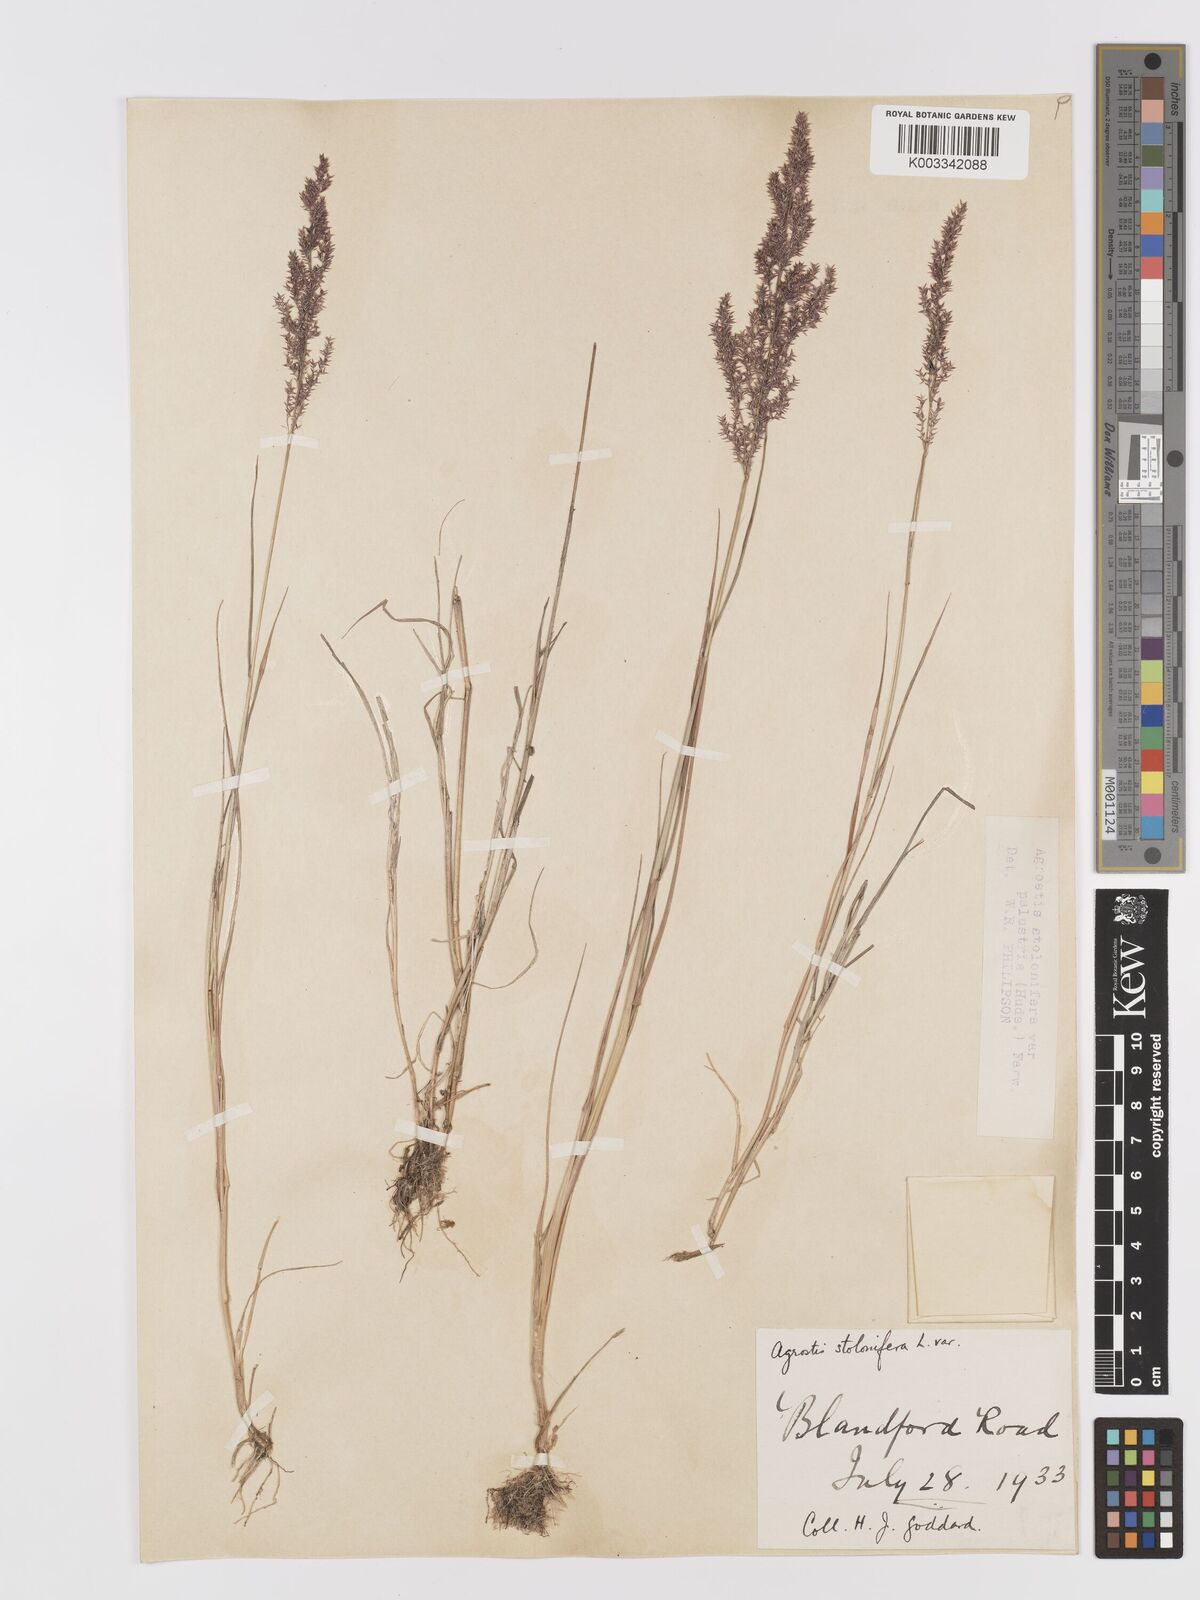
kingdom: Plantae
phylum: Tracheophyta
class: Liliopsida
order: Poales
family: Poaceae
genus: Agrostis
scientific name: Agrostis stolonifera
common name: Creeping bentgrass
